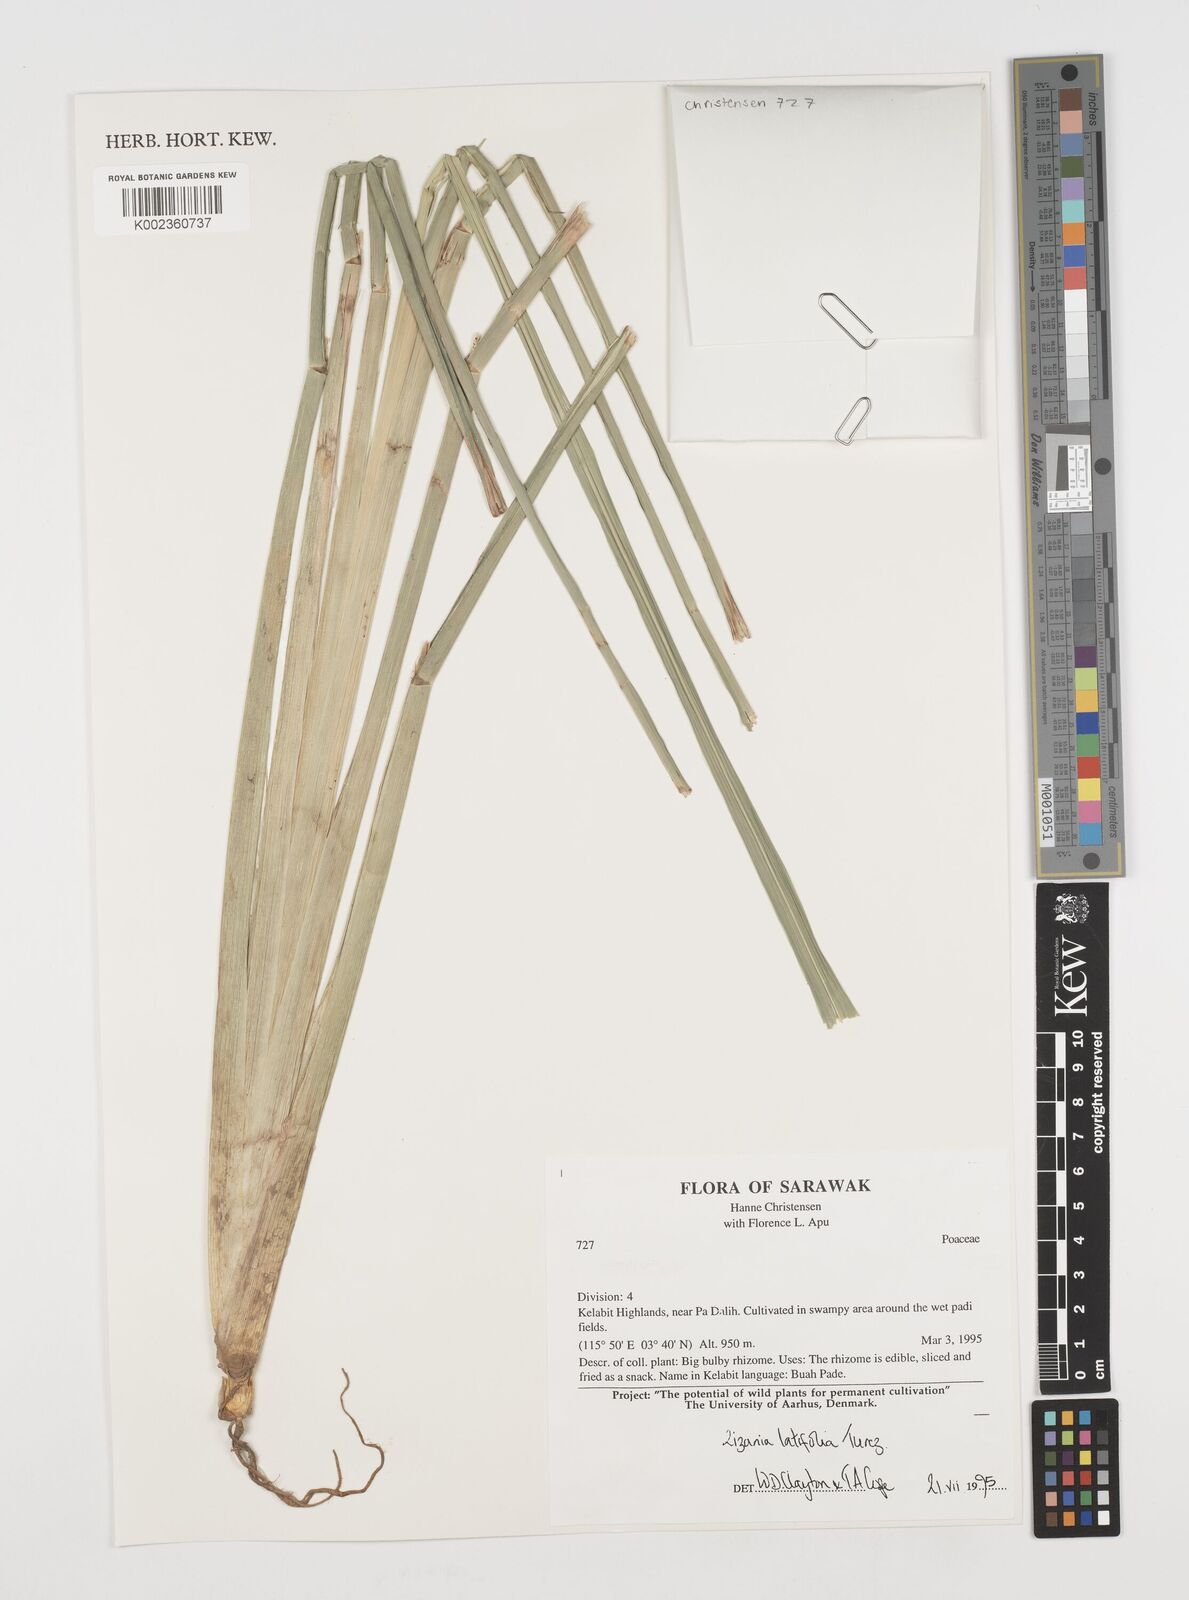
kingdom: Plantae
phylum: Tracheophyta
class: Liliopsida
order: Poales
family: Poaceae
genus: Zizania
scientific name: Zizania latifolia
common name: Manchurian wildrice
